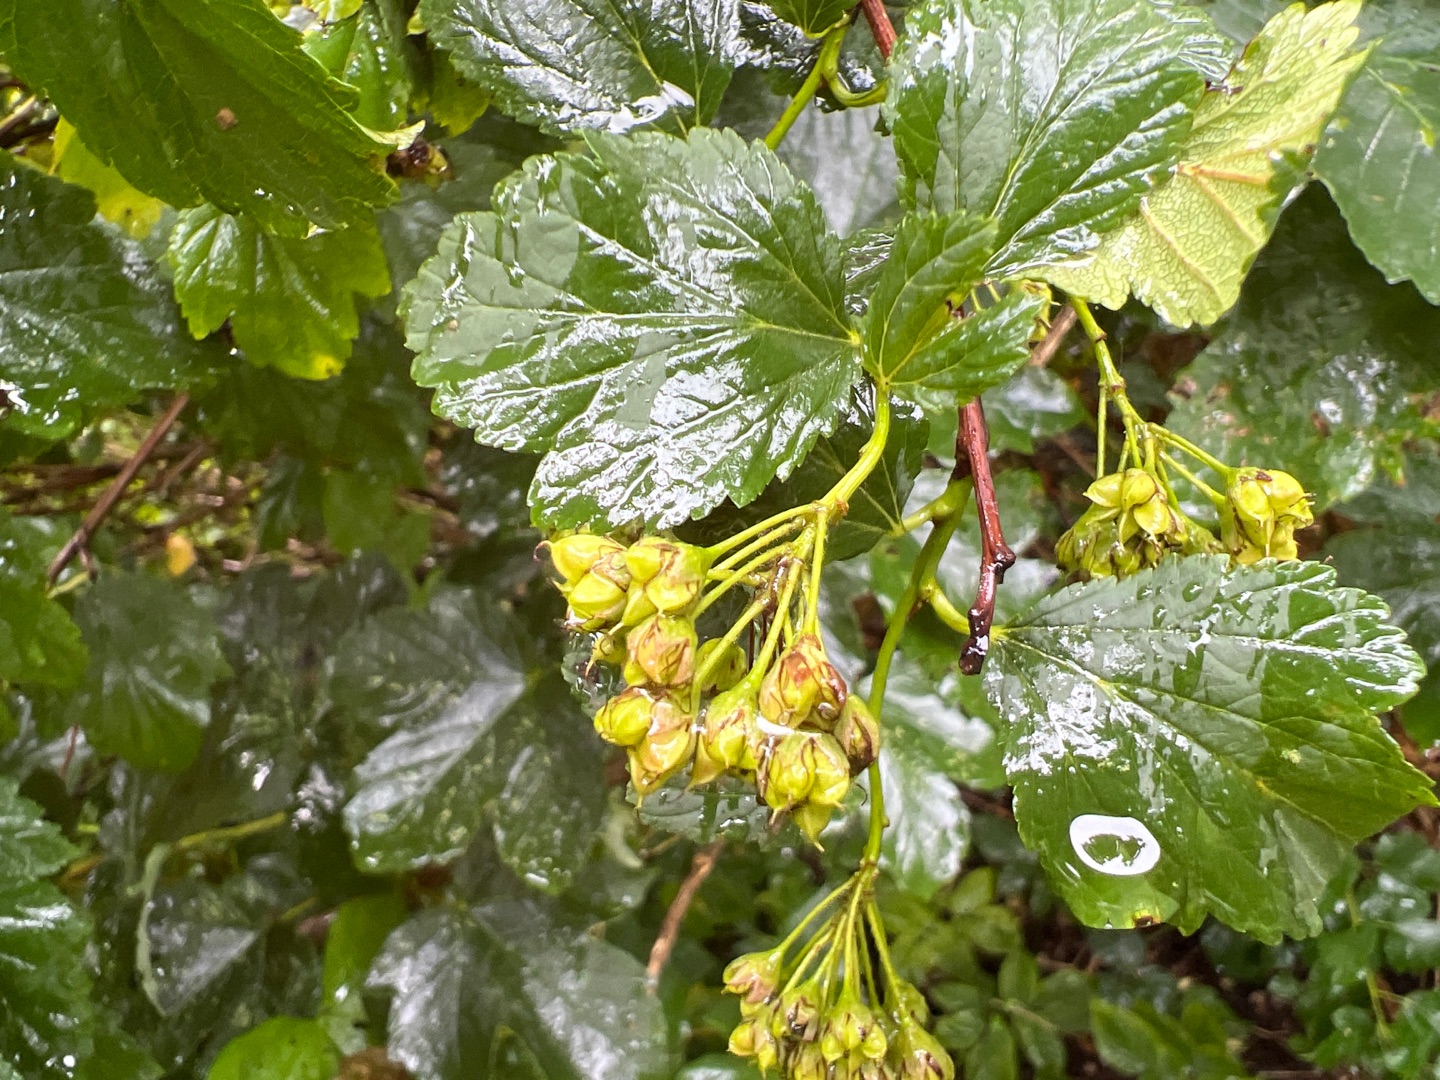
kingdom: Plantae
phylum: Tracheophyta
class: Magnoliopsida
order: Rosales
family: Rosaceae
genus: Physocarpus
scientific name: Physocarpus opulifolius
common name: Almindelig blærespiræa
